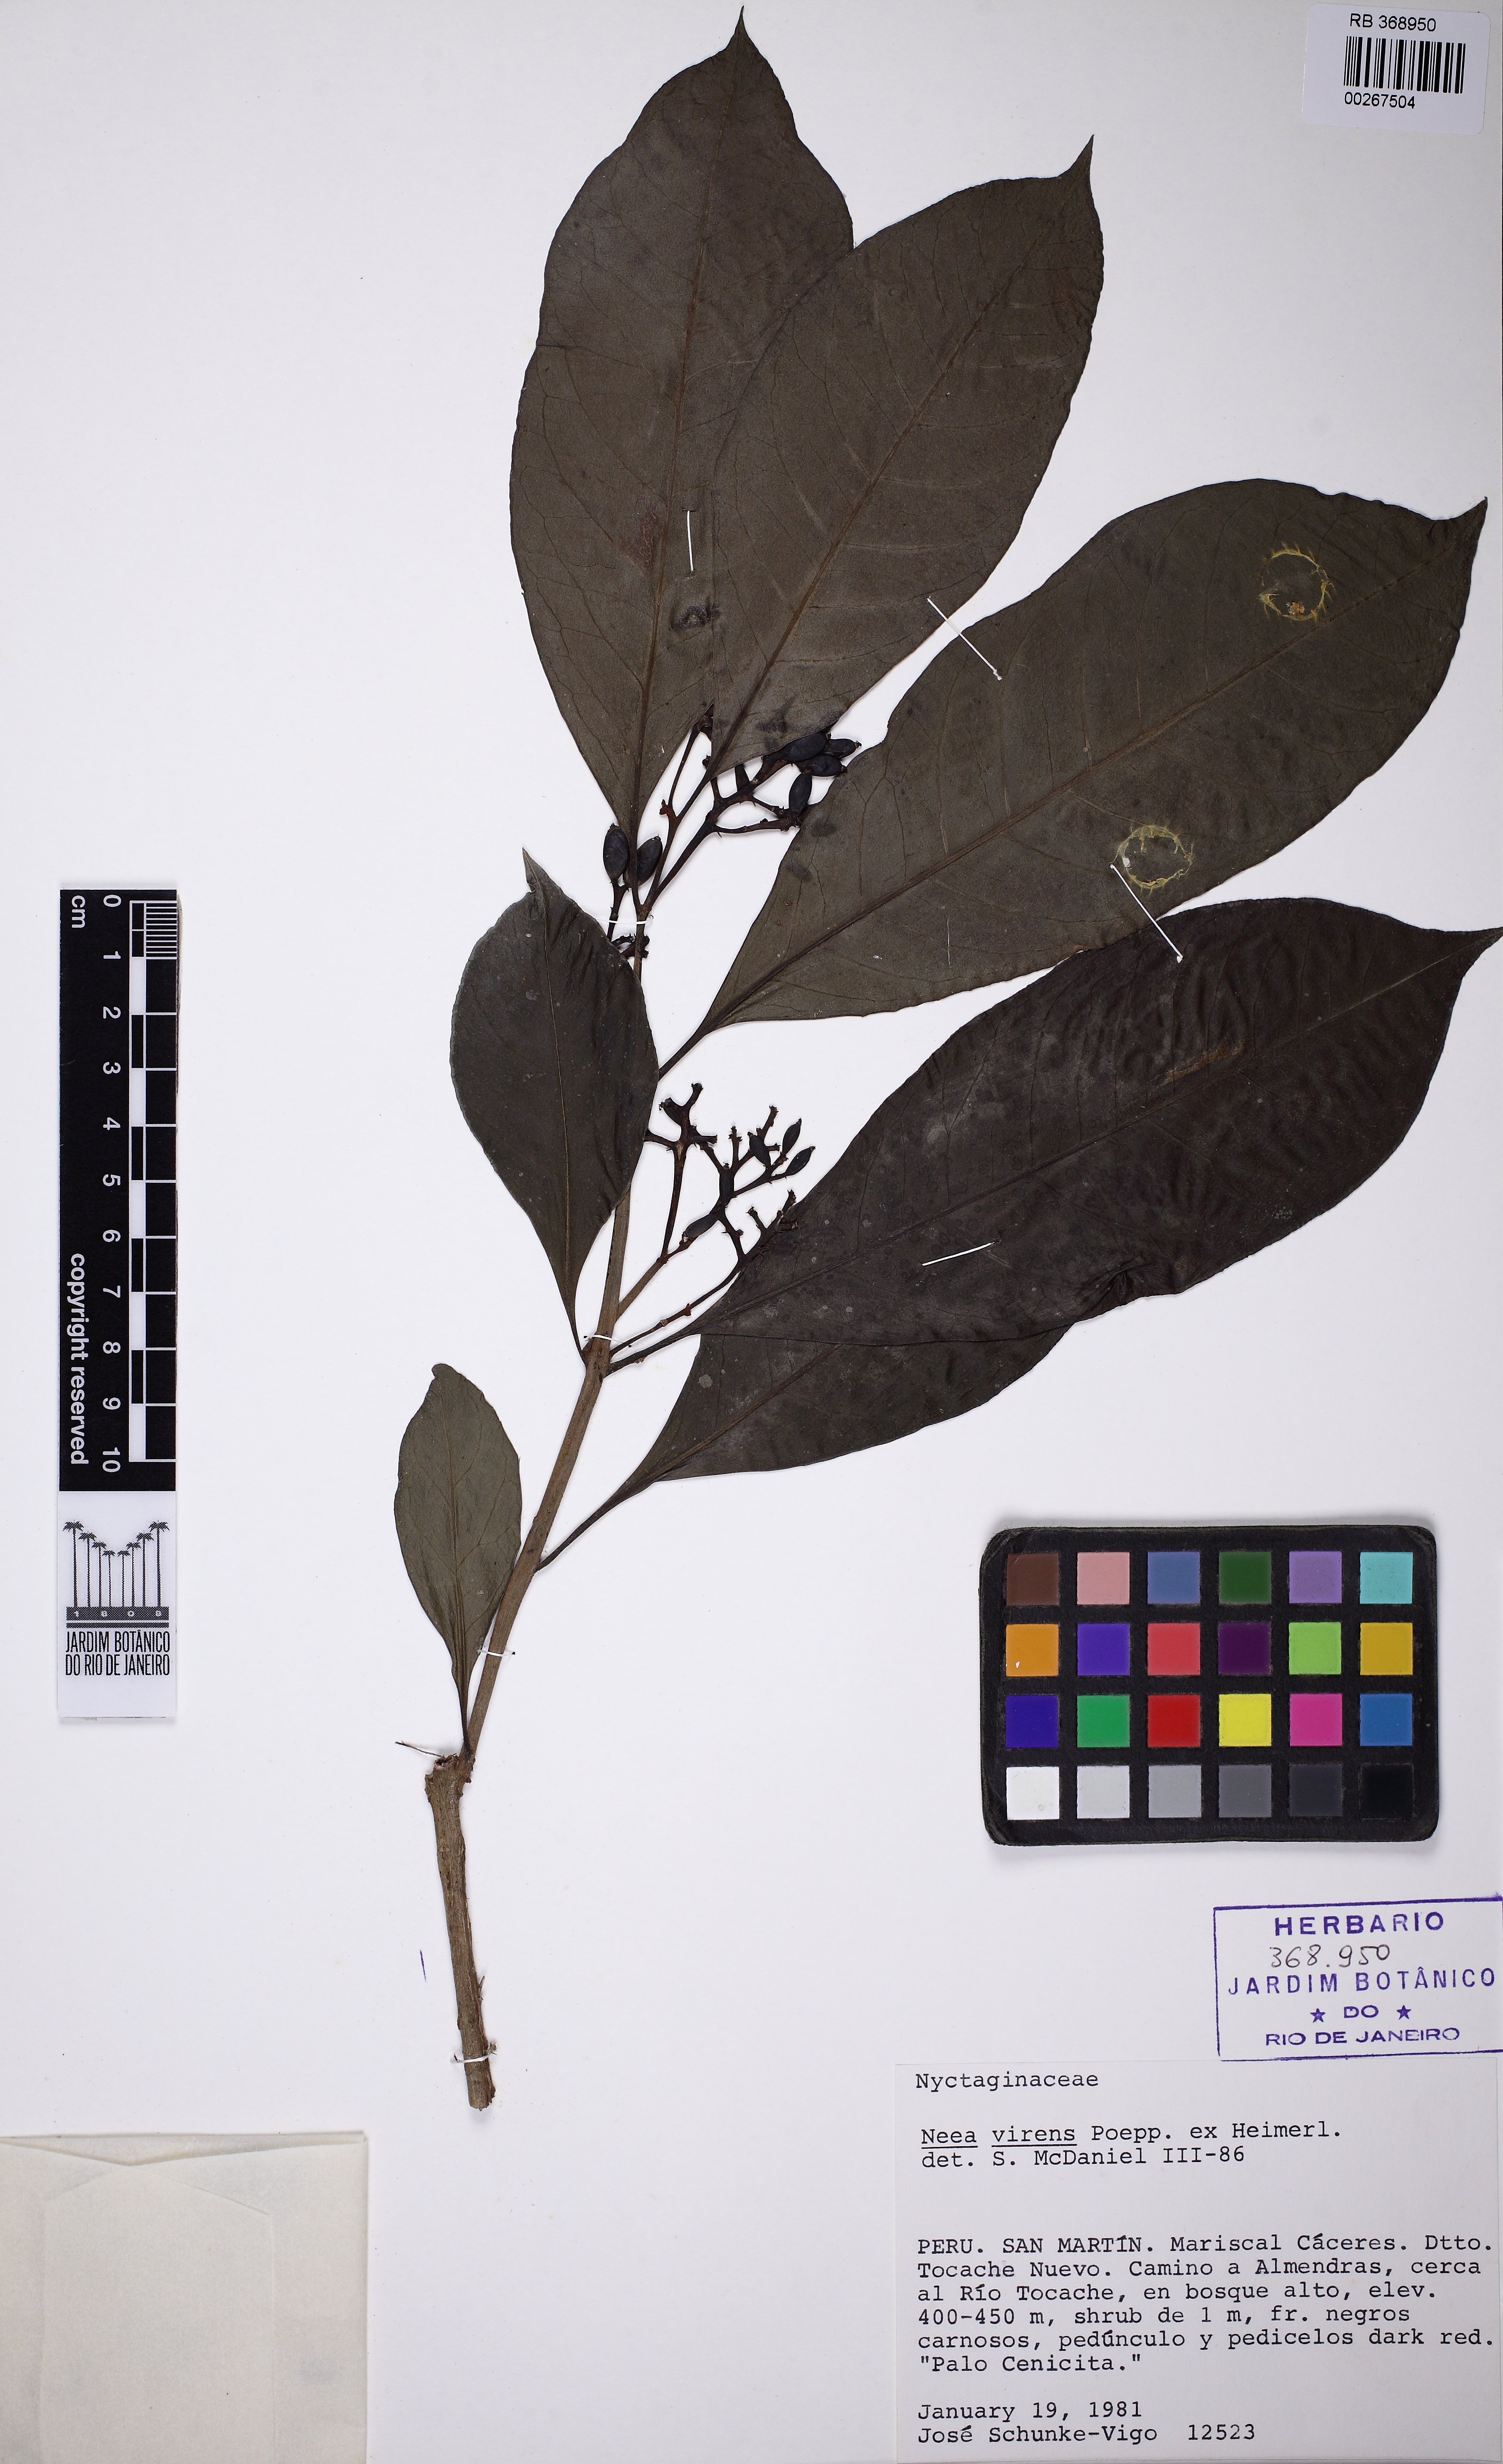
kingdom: Plantae
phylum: Tracheophyta
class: Magnoliopsida
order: Caryophyllales
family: Nyctaginaceae
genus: Neea
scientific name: Neea virens
